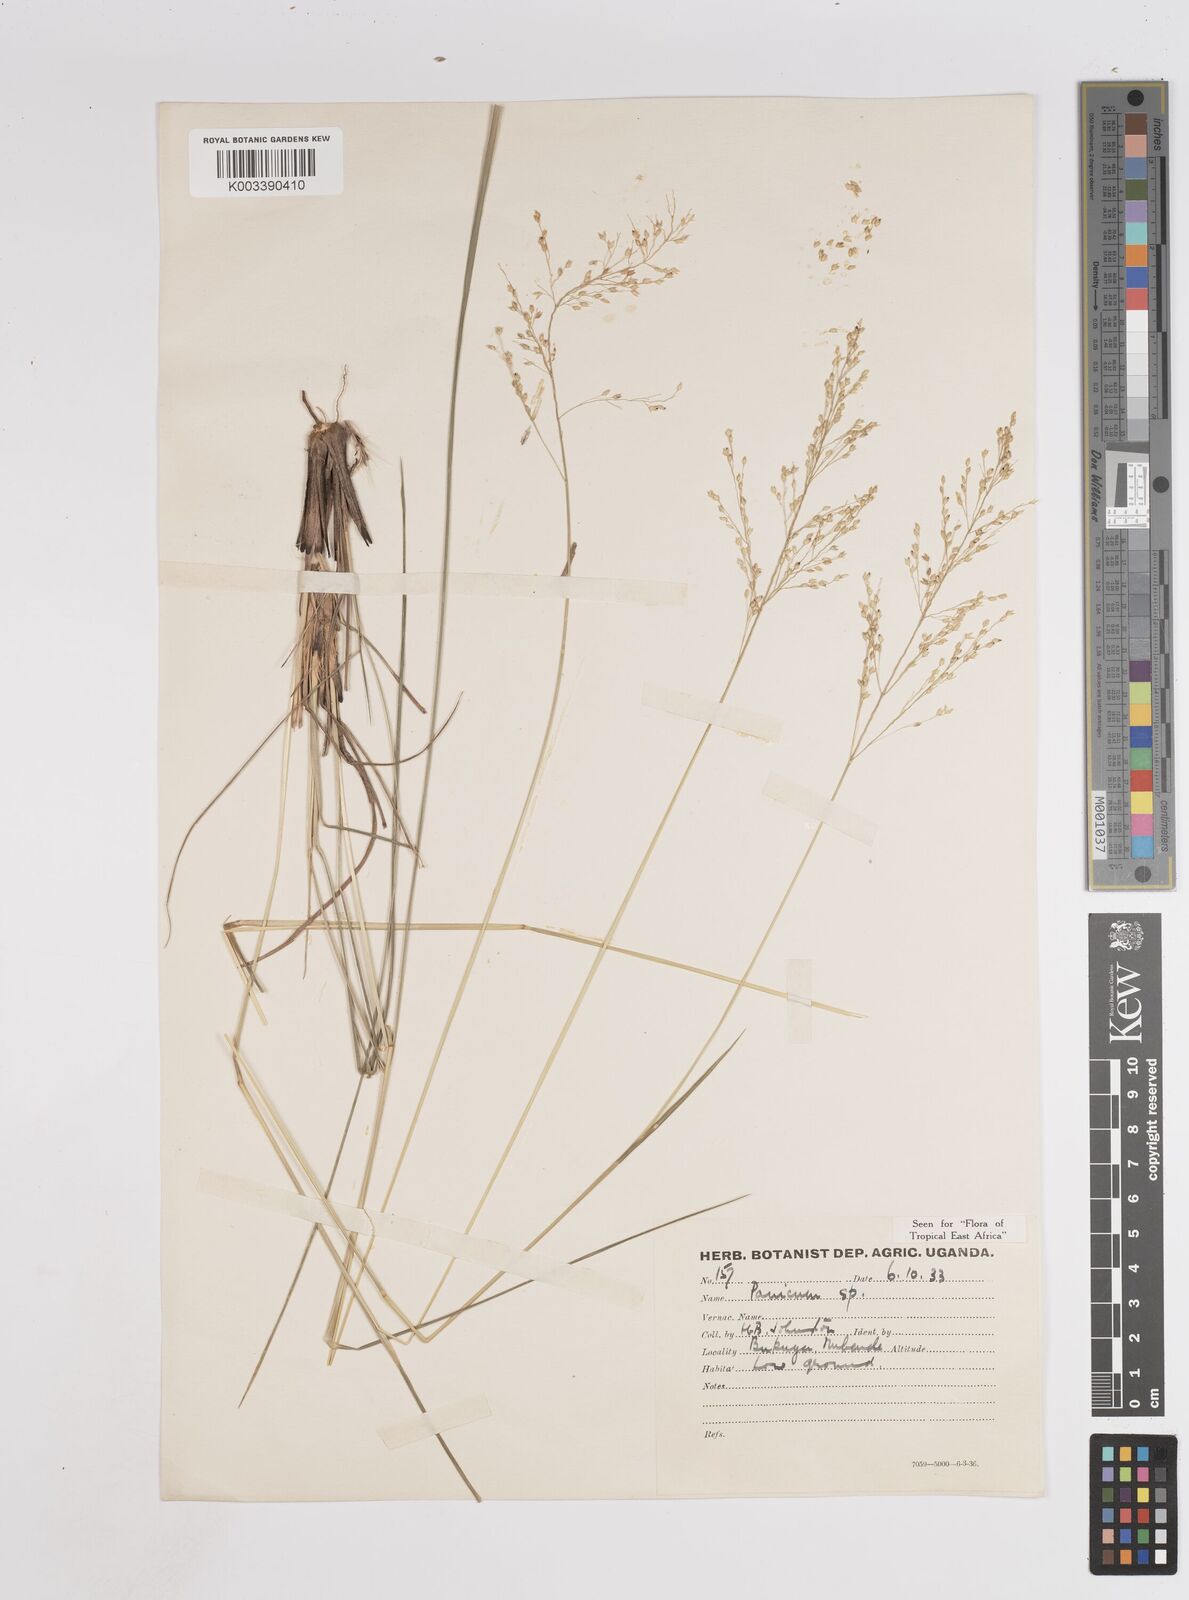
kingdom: Plantae
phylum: Tracheophyta
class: Liliopsida
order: Poales
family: Poaceae
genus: Panicum
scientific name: Panicum dregeanum
